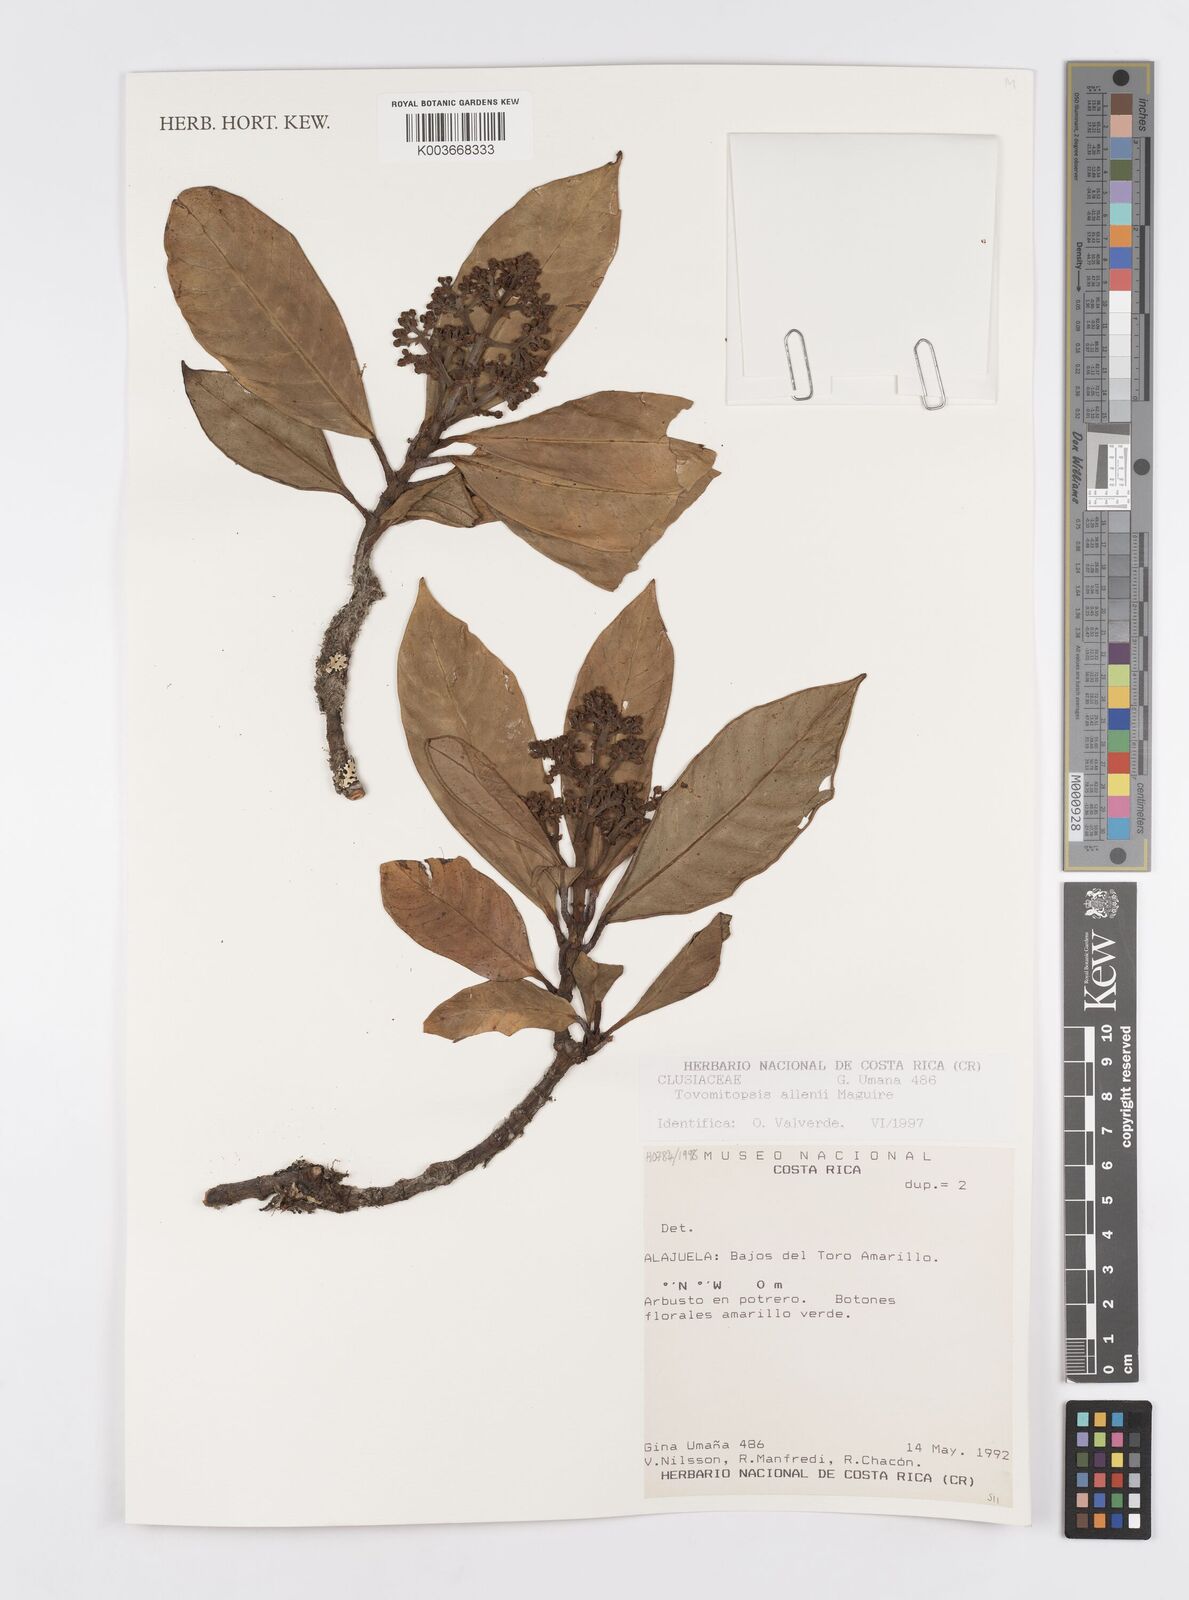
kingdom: Plantae
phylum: Tracheophyta
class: Magnoliopsida
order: Malpighiales
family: Clusiaceae
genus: Chrysochlamys
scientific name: Chrysochlamys allenii
